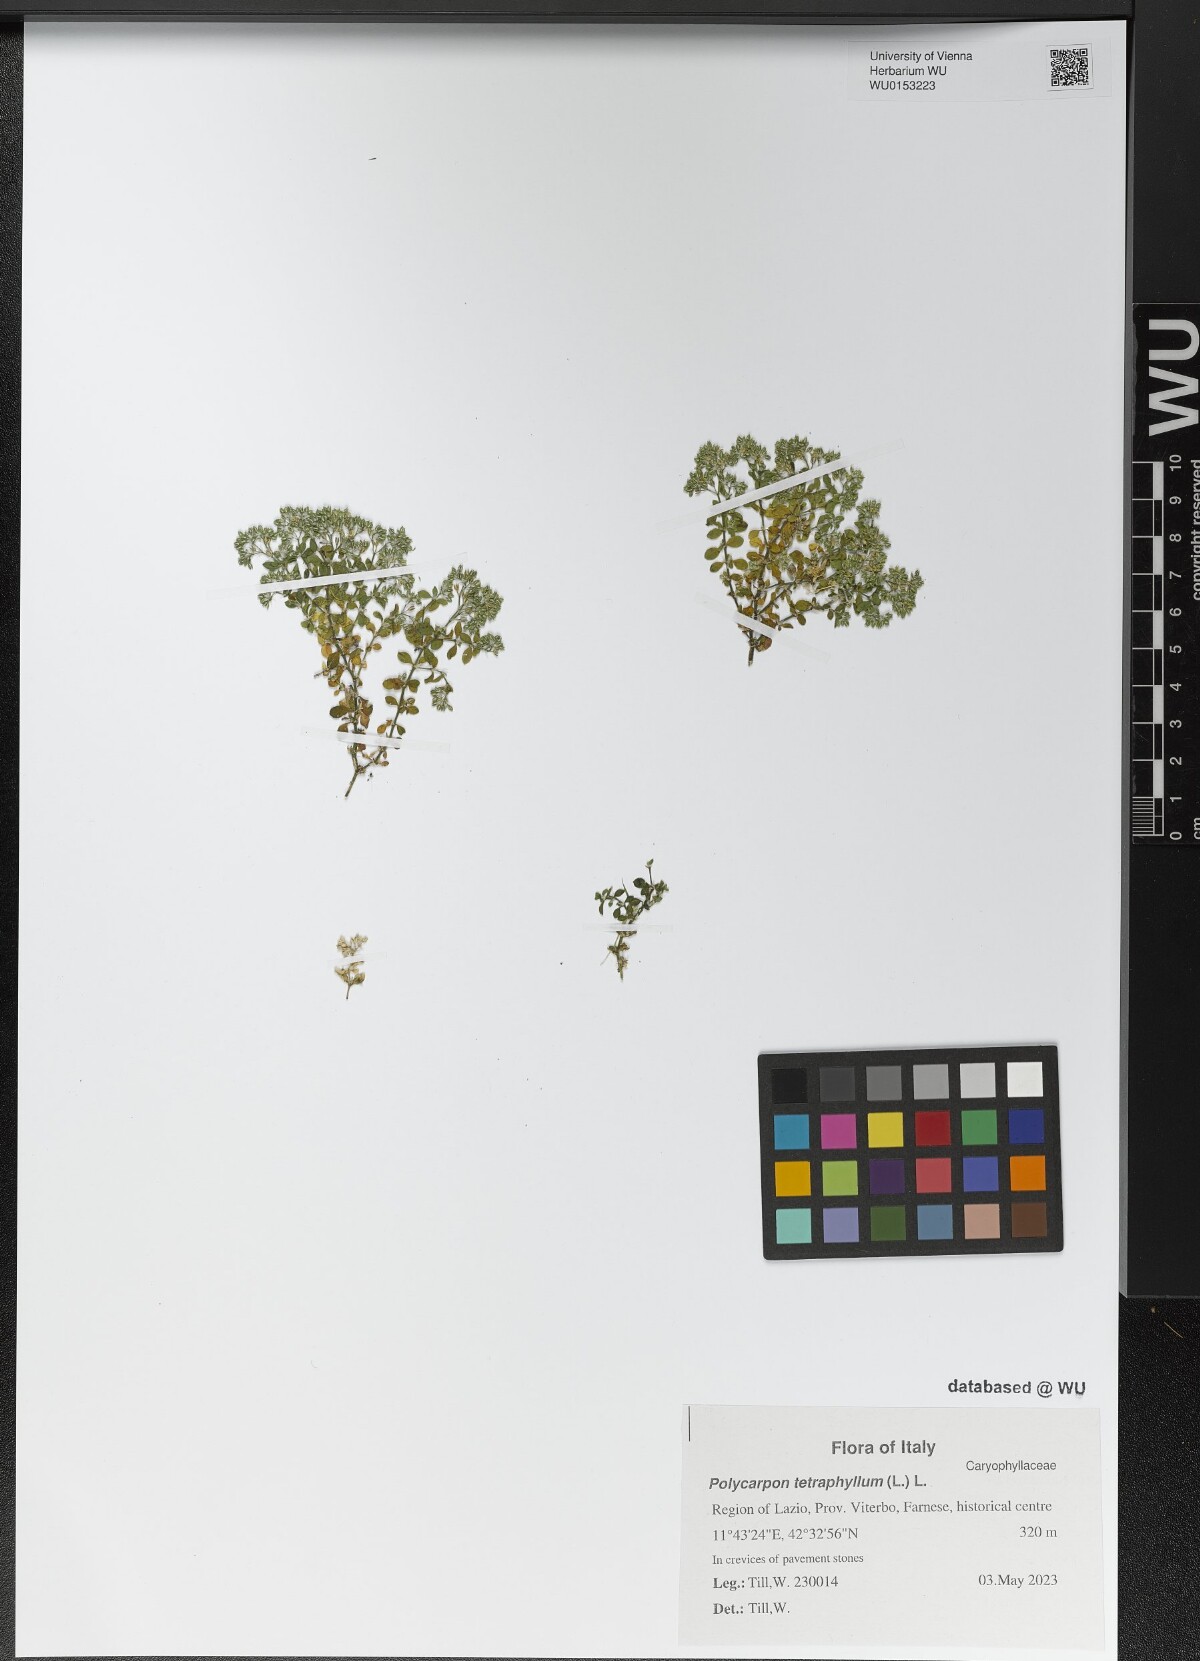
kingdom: Plantae
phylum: Tracheophyta
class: Magnoliopsida
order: Caryophyllales
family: Caryophyllaceae
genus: Polycarpon
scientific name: Polycarpon tetraphyllum
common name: Four-leaved all-seed
